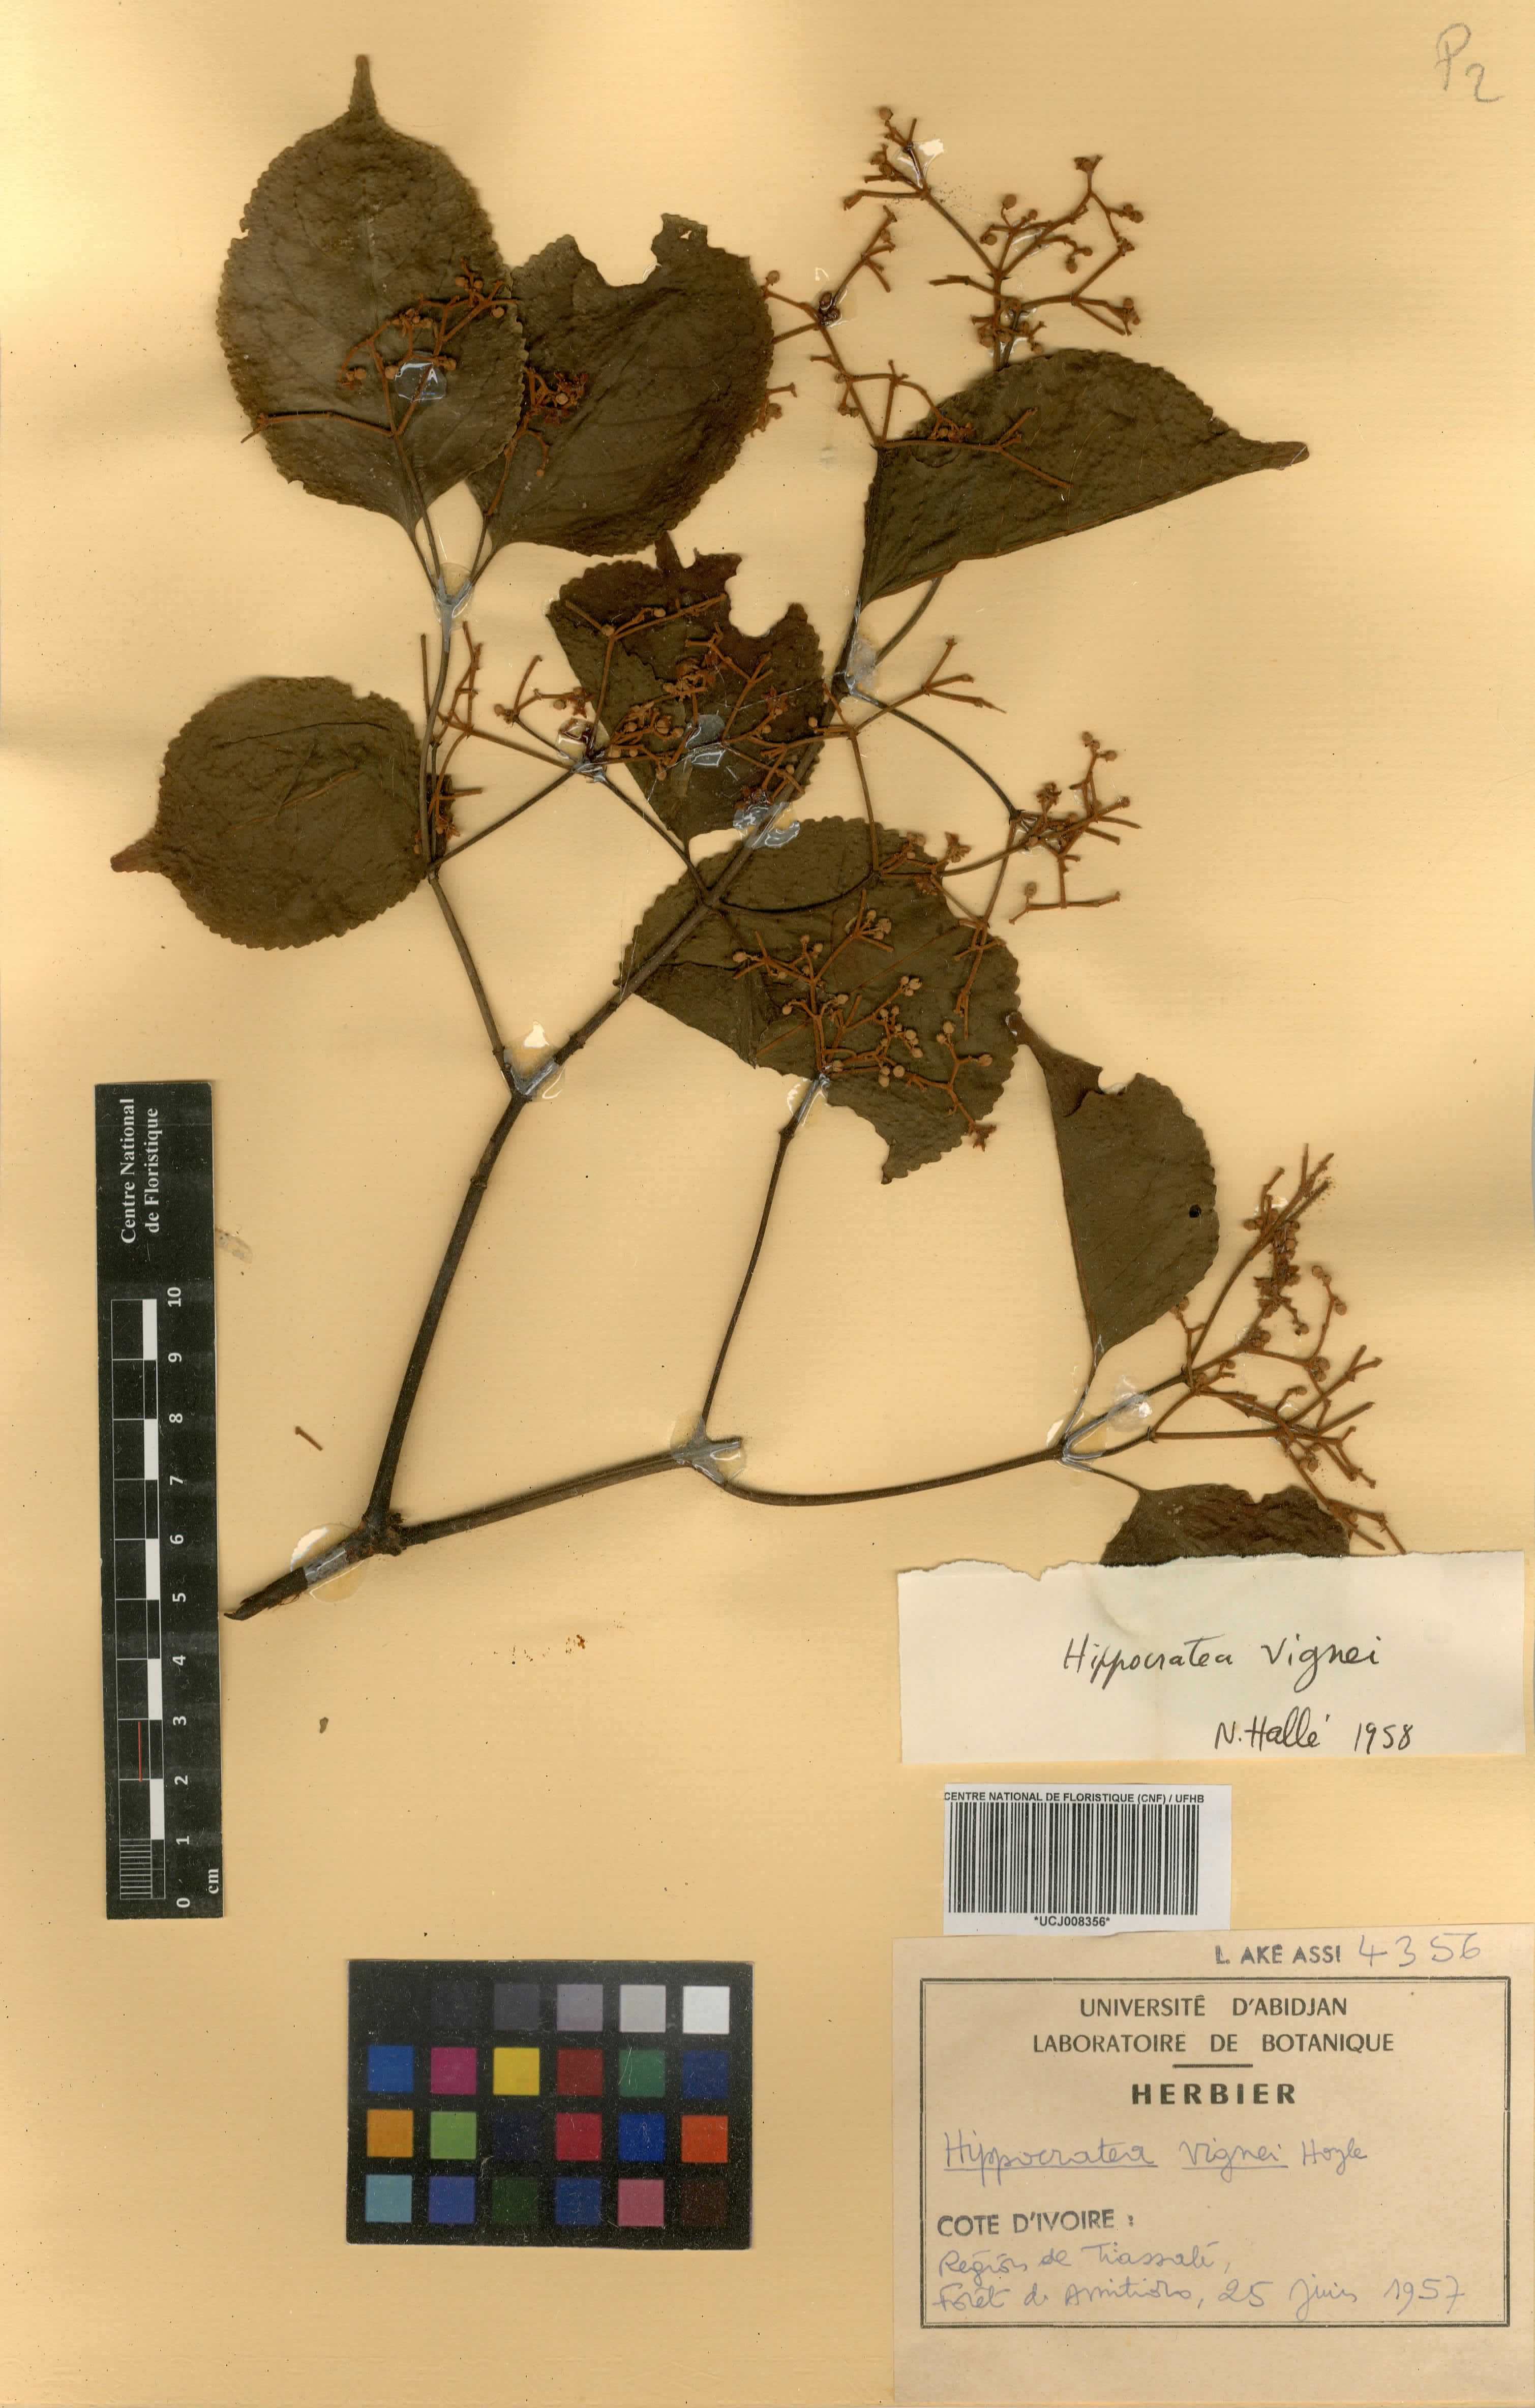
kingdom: Plantae
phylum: Tracheophyta
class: Magnoliopsida
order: Celastrales
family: Celastraceae
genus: Hippocratea
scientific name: Hippocratea
